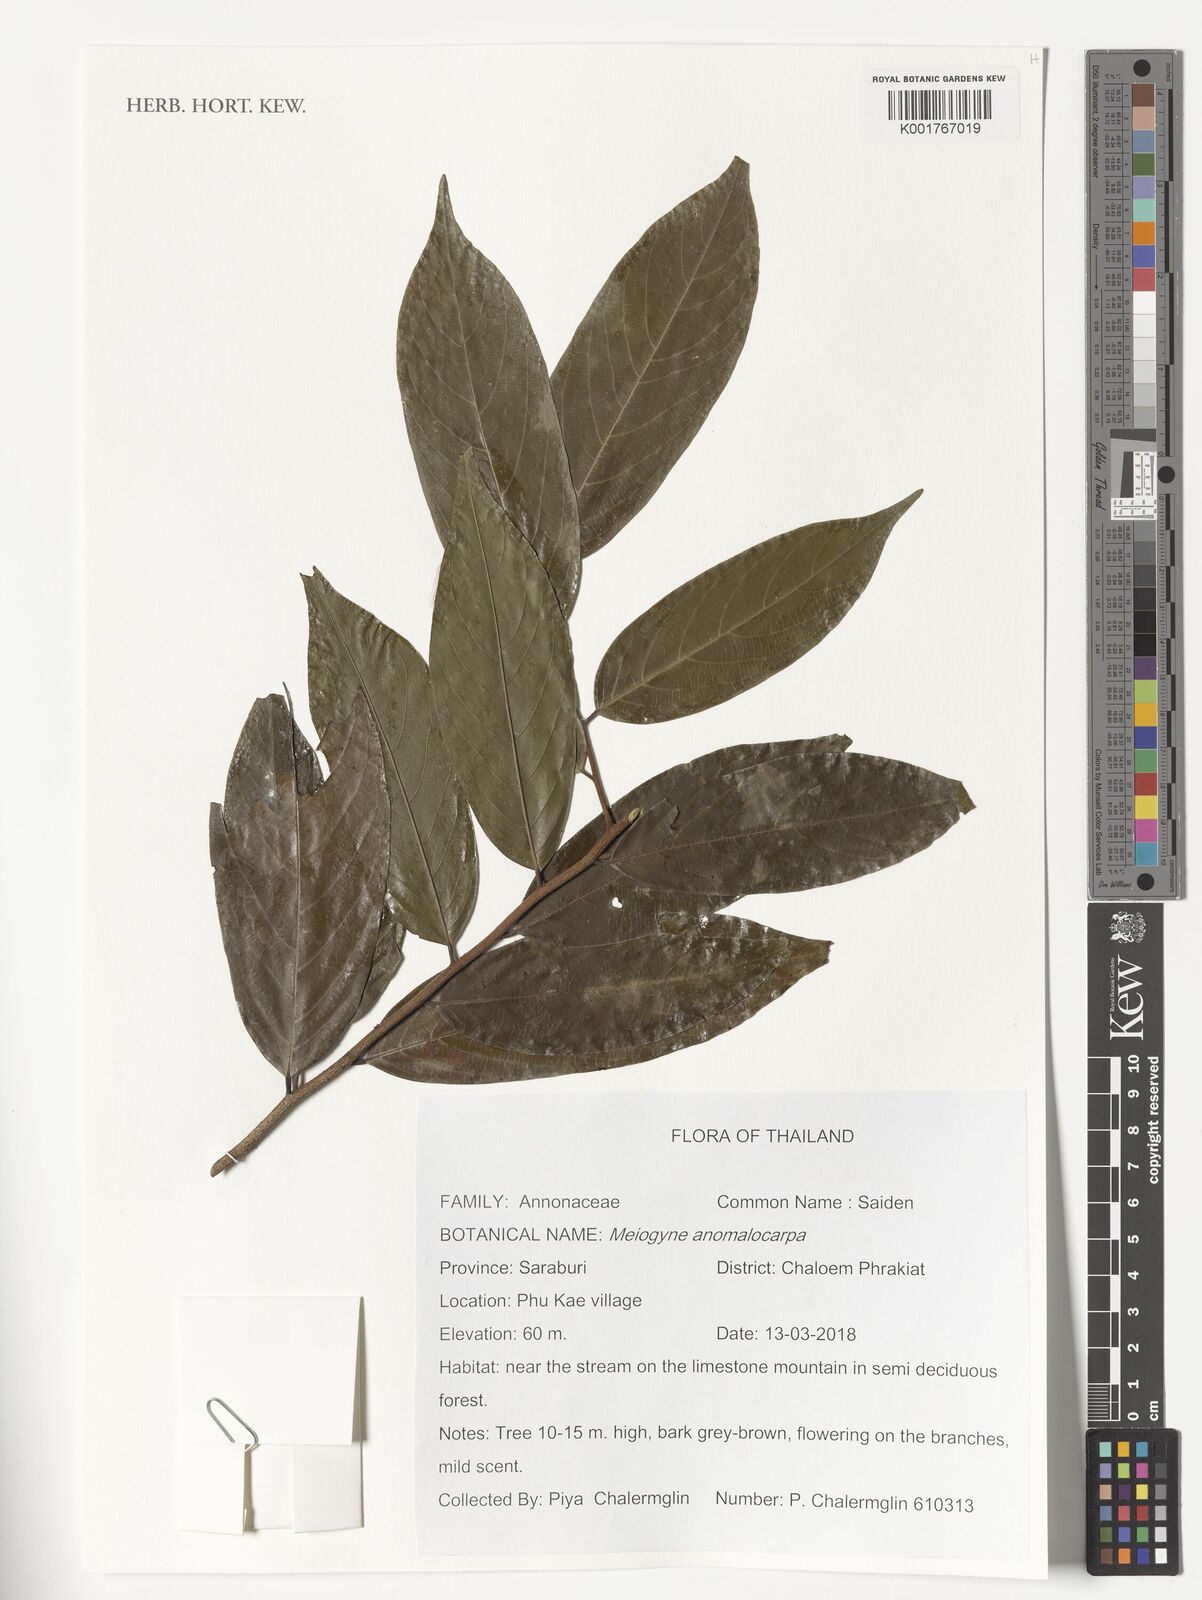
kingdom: Plantae
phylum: Tracheophyta
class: Magnoliopsida
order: Magnoliales
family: Annonaceae
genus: Meiogyne
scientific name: Meiogyne anomalocarpa
